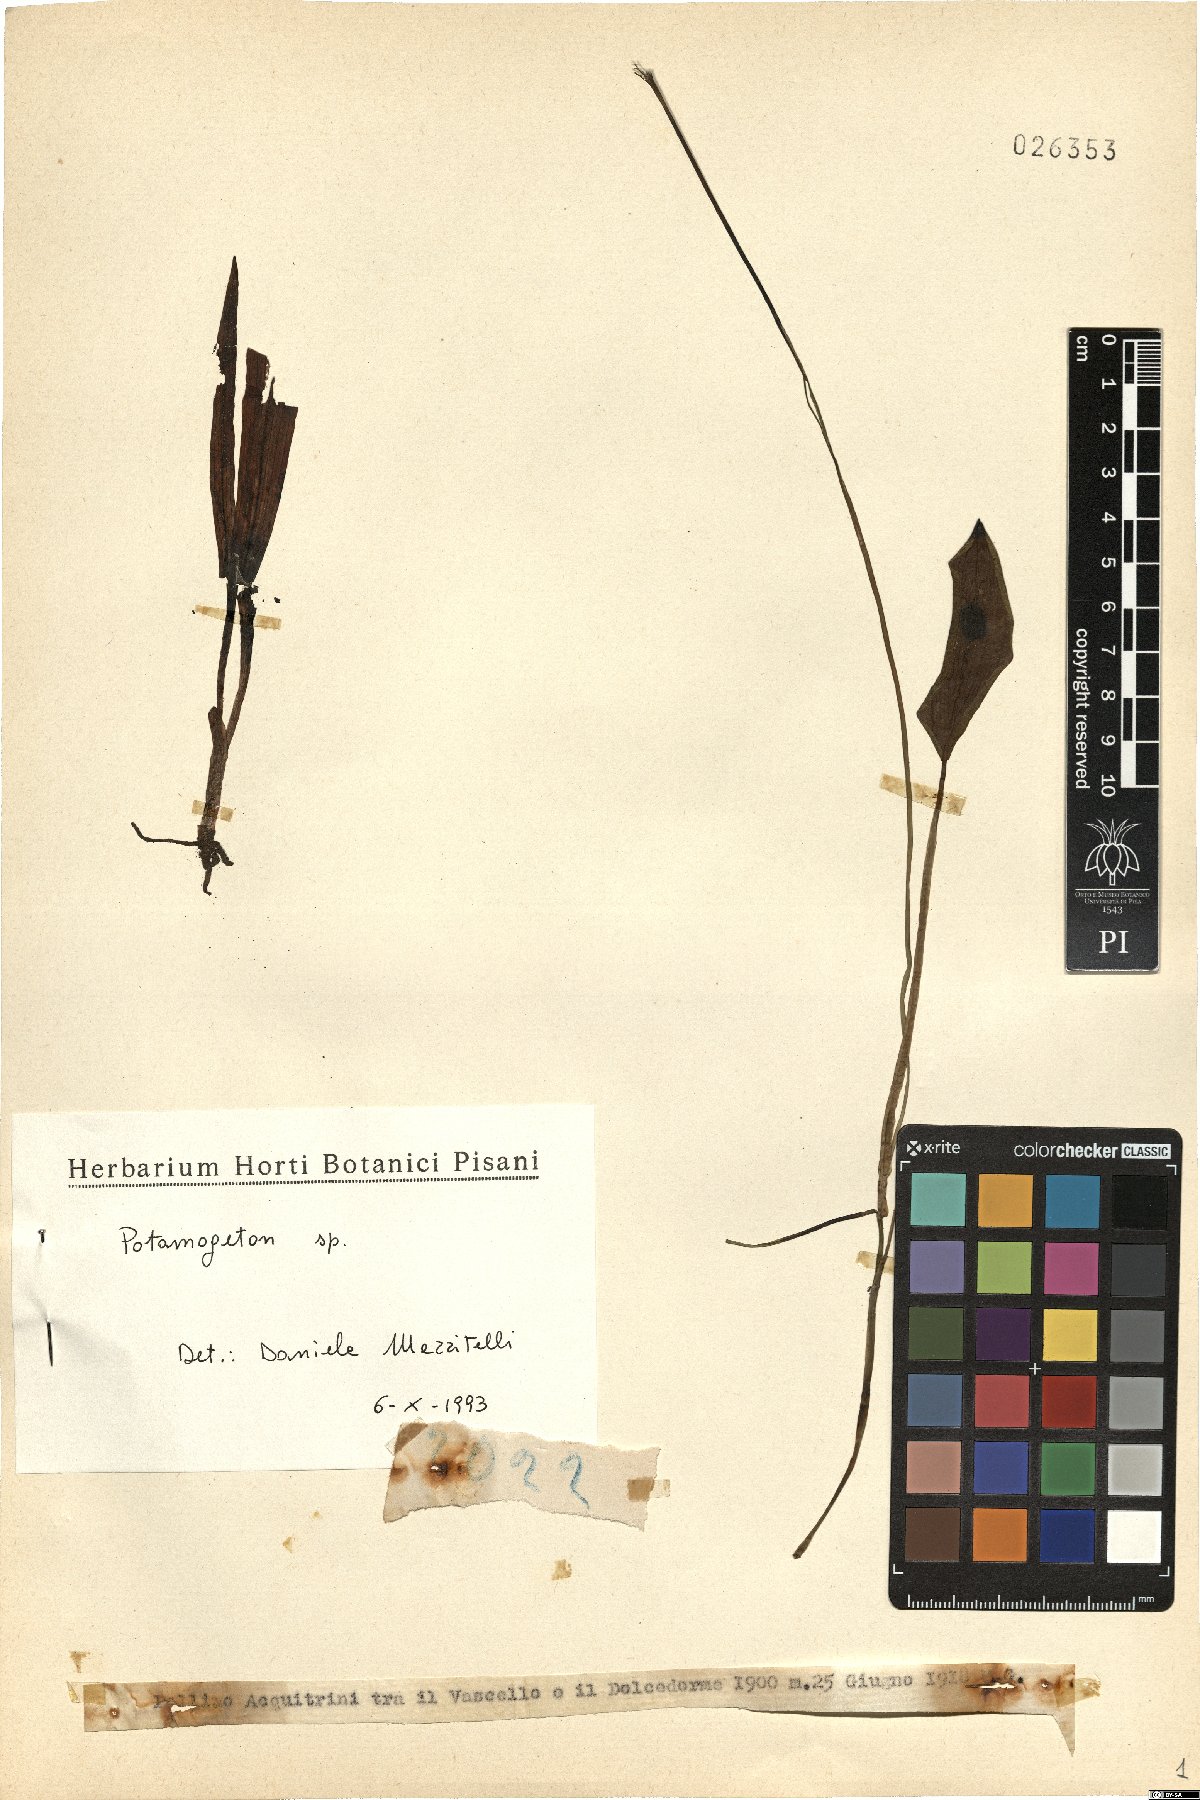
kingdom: Plantae
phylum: Tracheophyta
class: Liliopsida
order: Alismatales
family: Potamogetonaceae
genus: Potamogeton
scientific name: Potamogeton
